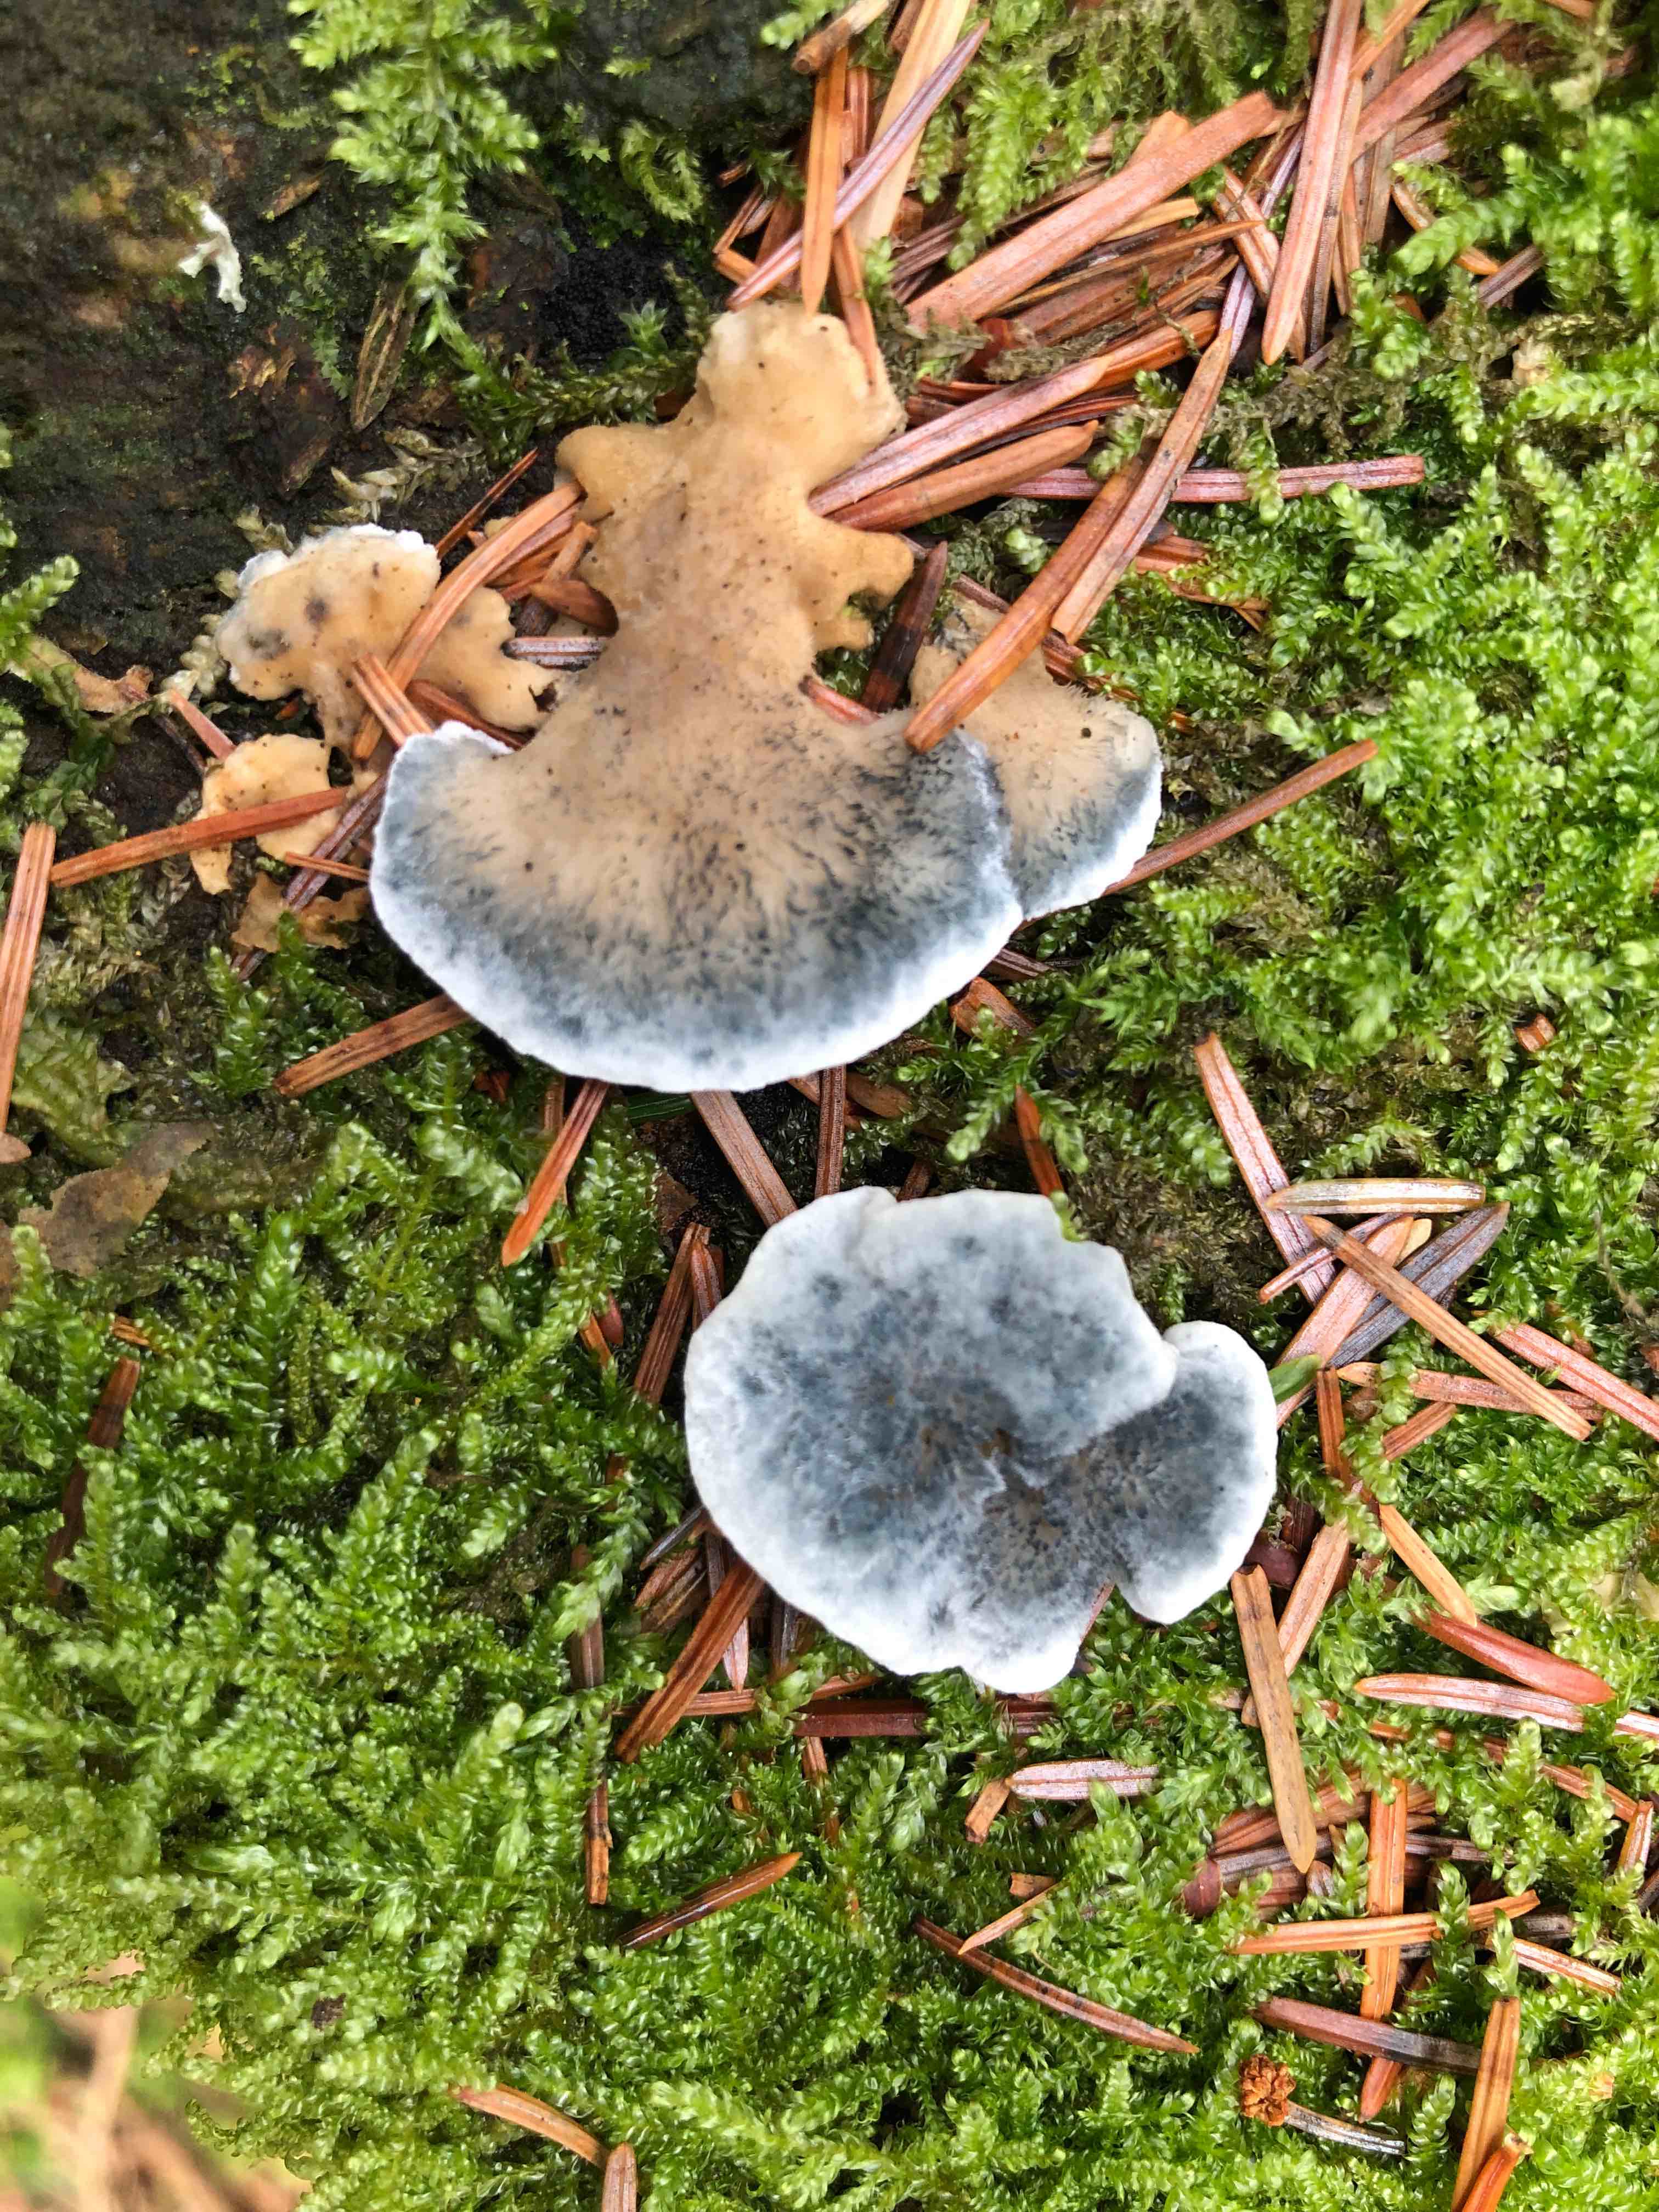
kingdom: Fungi
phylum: Basidiomycota
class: Agaricomycetes
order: Polyporales
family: Polyporaceae
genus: Cyanosporus
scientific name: Cyanosporus caesius
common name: blålig kødporesvamp
